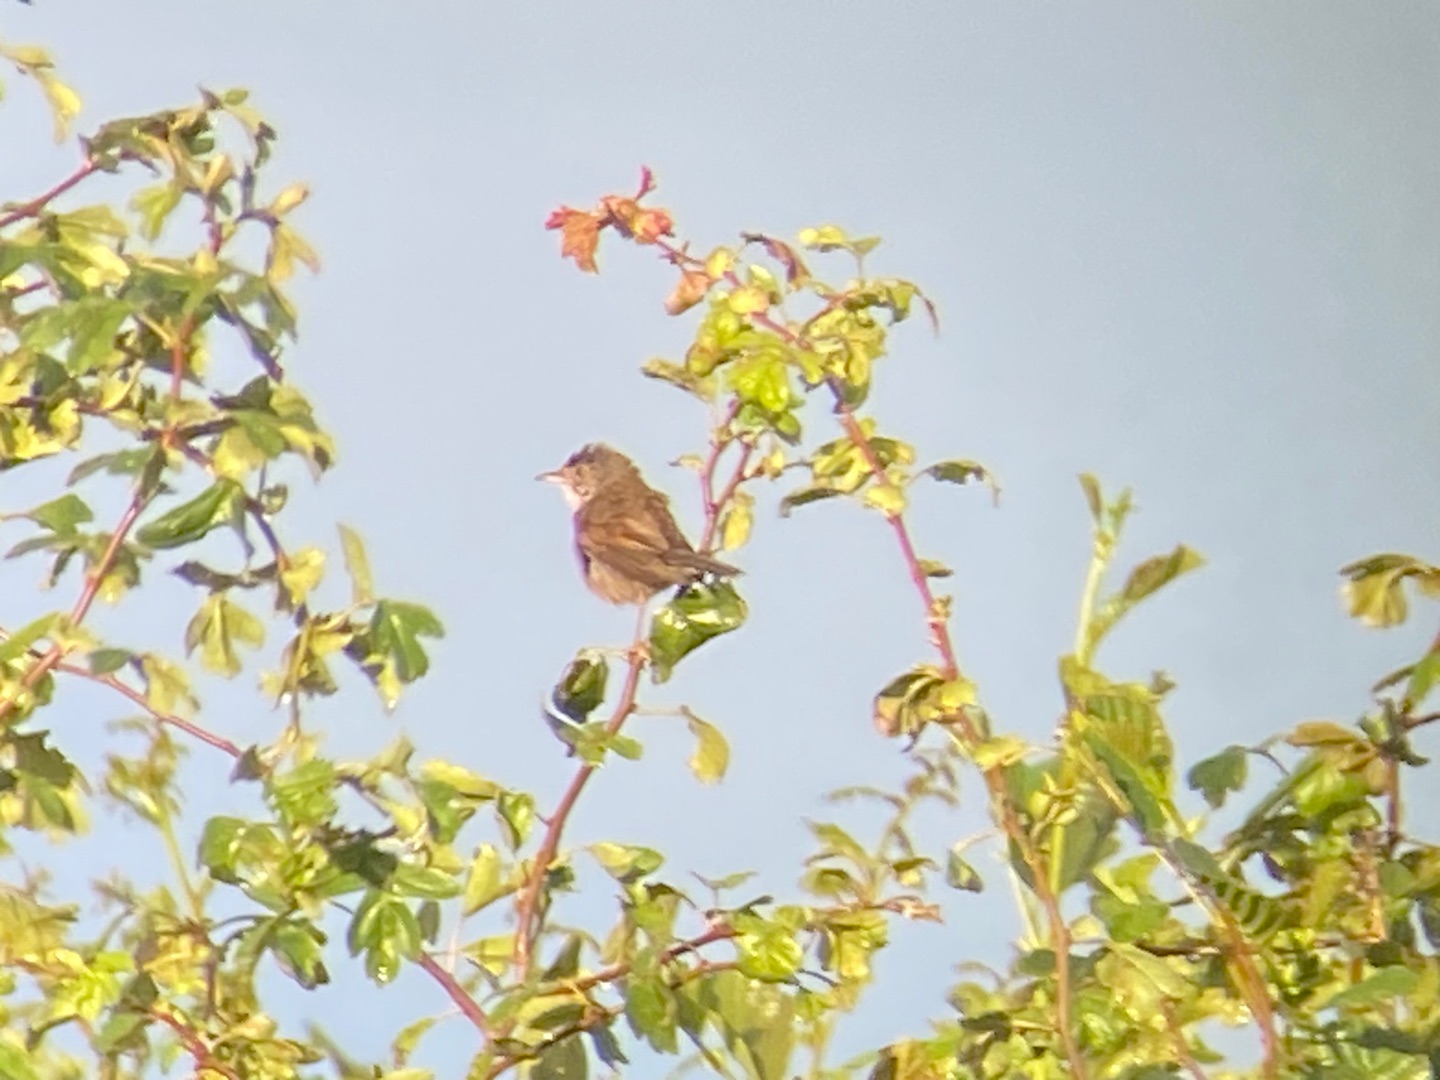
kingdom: Animalia
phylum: Chordata
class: Aves
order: Passeriformes
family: Sylviidae
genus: Sylvia
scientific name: Sylvia communis
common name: Tornsanger
